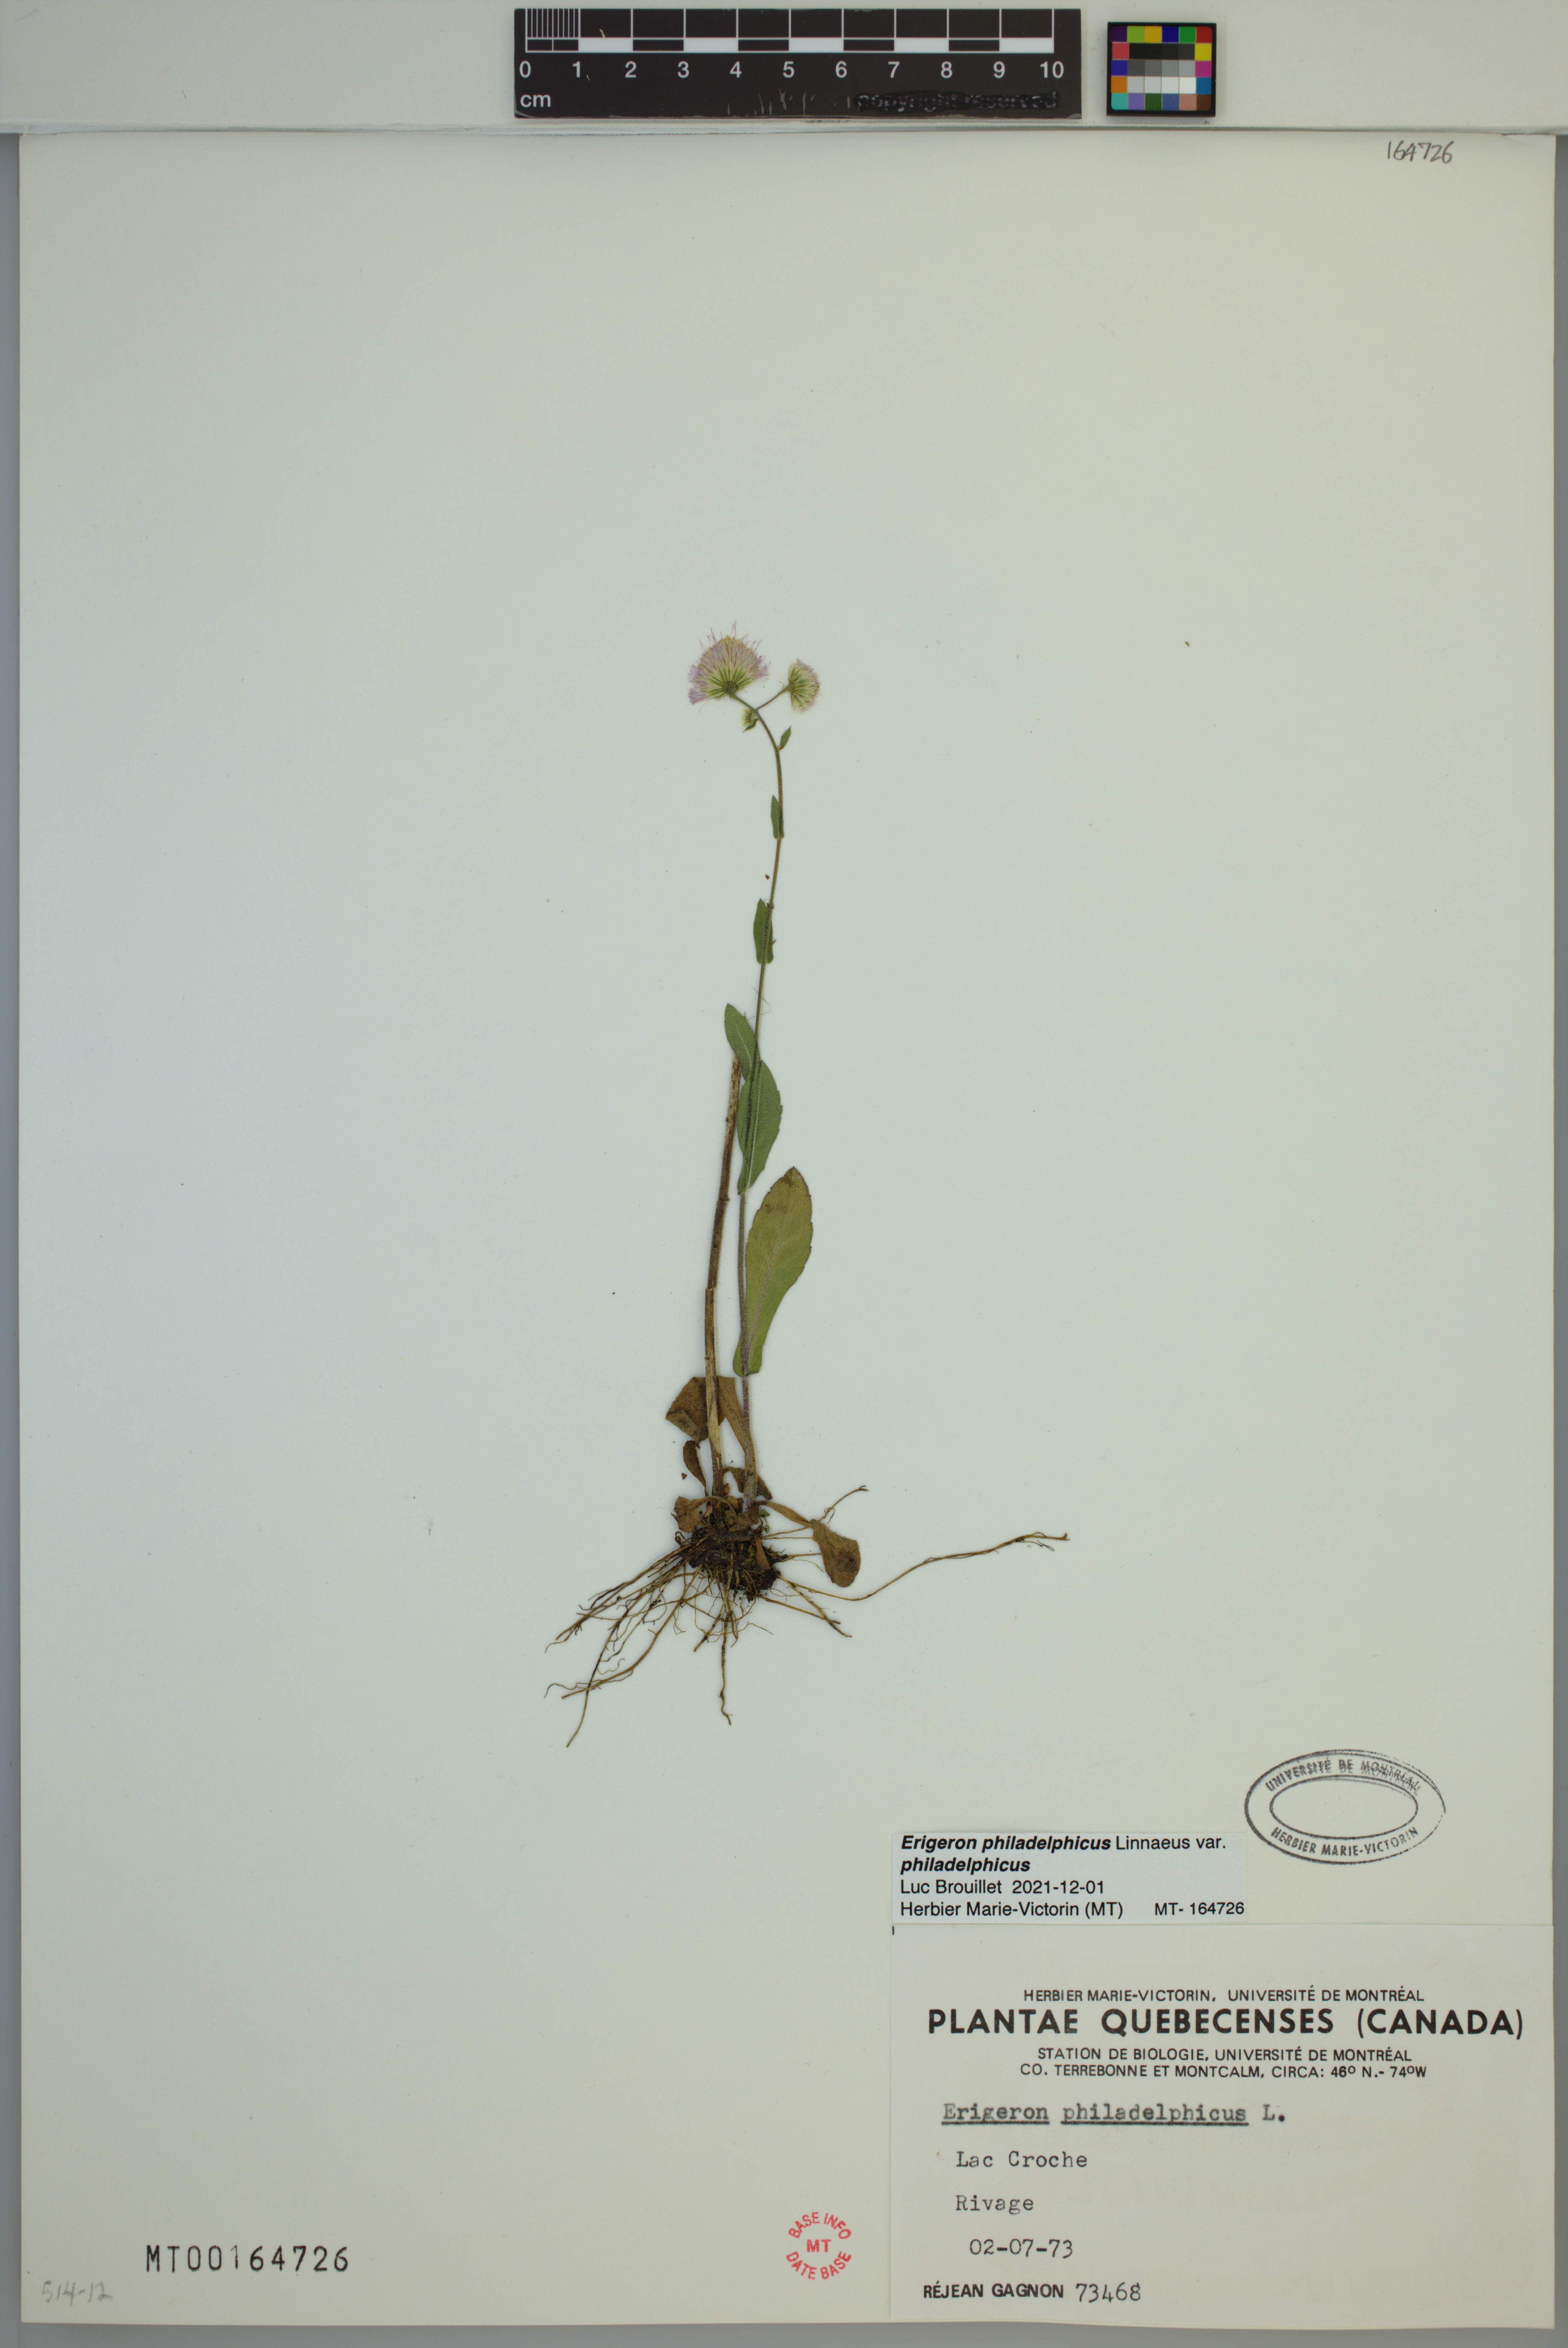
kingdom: Plantae
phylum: Tracheophyta
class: Magnoliopsida
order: Asterales
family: Asteraceae
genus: Erigeron
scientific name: Erigeron philadelphicus
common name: Robin's-plantain
